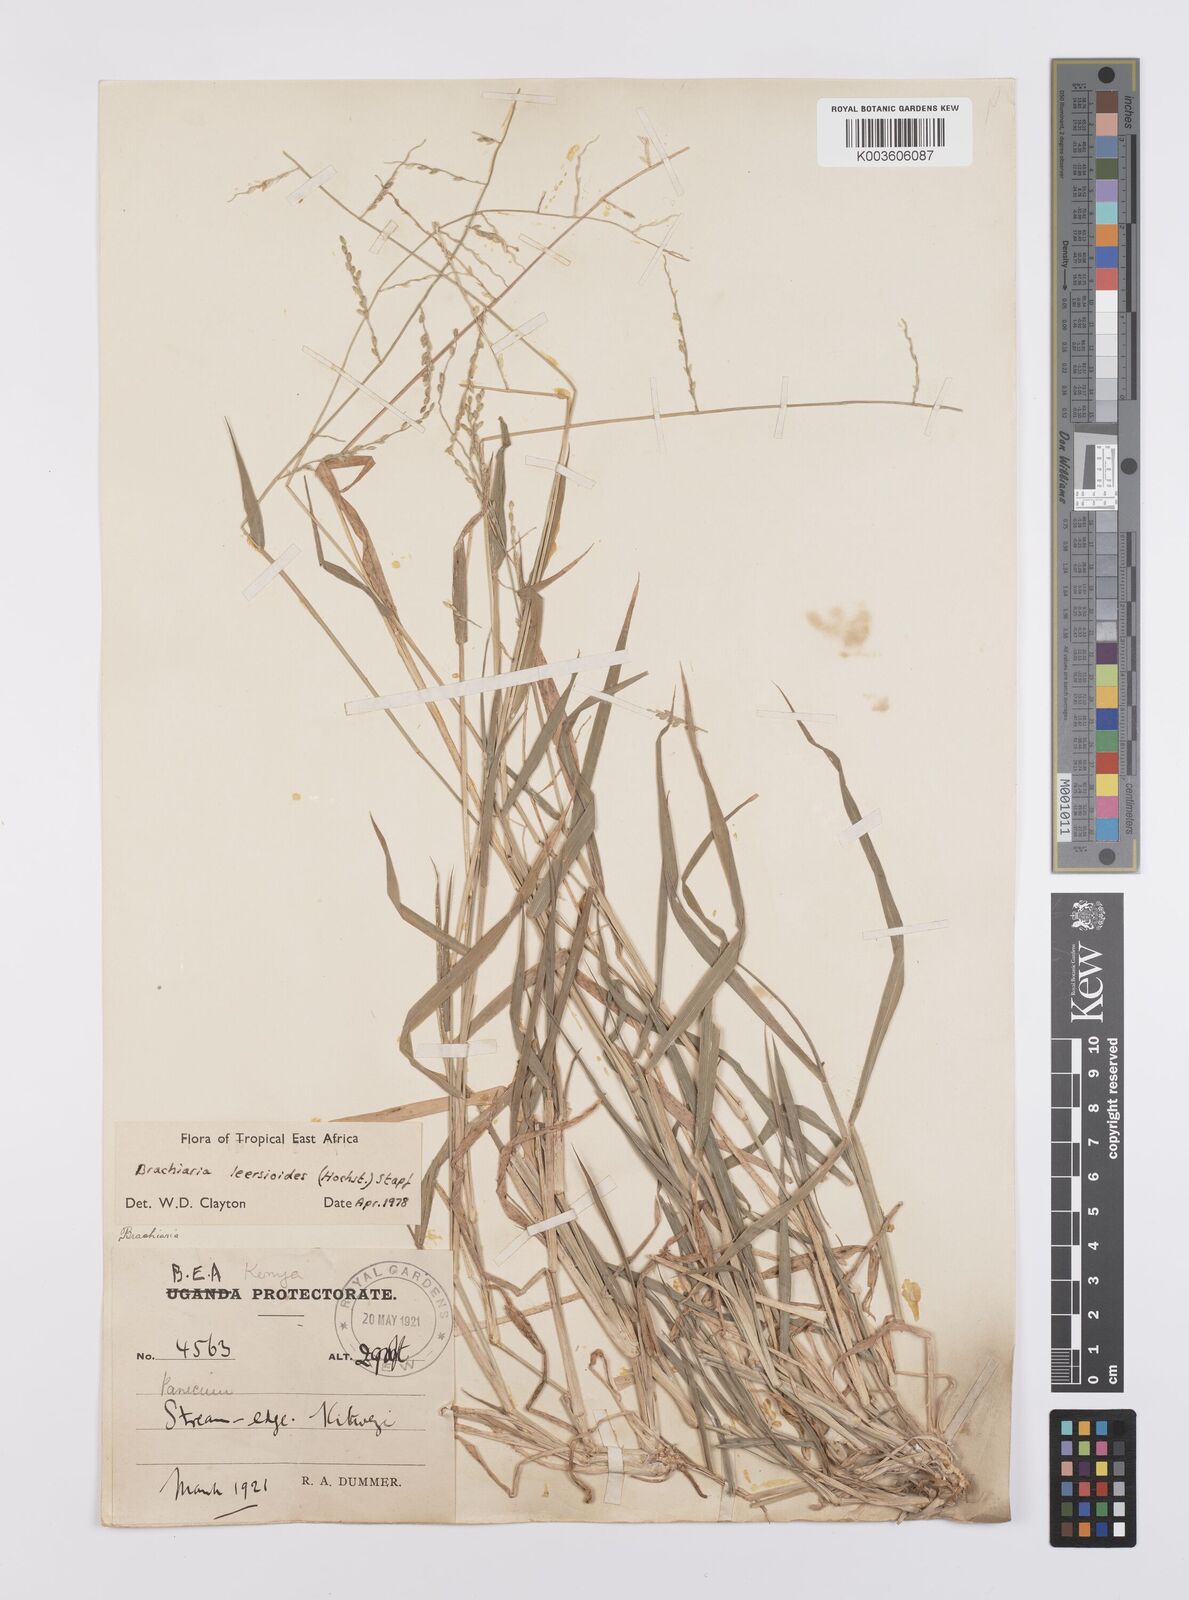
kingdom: Plantae
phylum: Tracheophyta
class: Liliopsida
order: Poales
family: Poaceae
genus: Urochloa
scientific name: Urochloa leersioides
